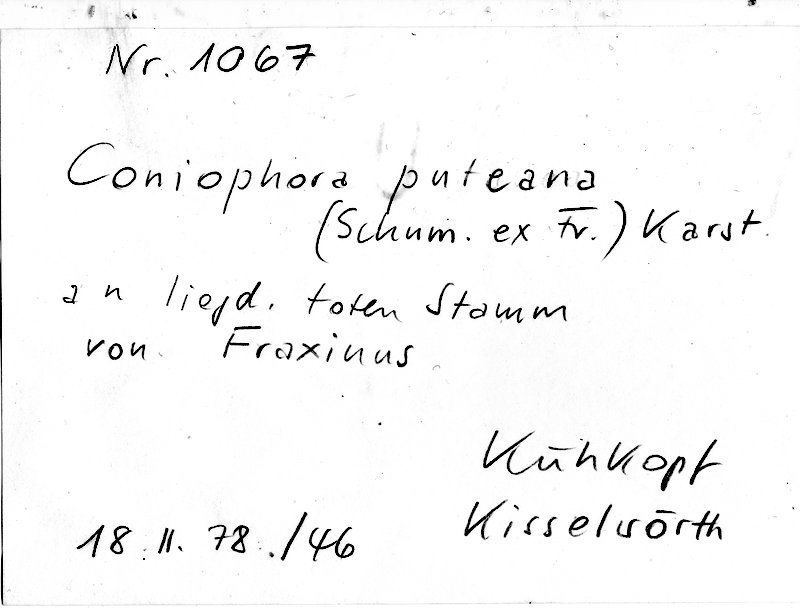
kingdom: Fungi
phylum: Basidiomycota
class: Agaricomycetes
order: Boletales
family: Coniophoraceae
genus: Coniophora
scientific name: Coniophora puteana
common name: Cellar fungus
